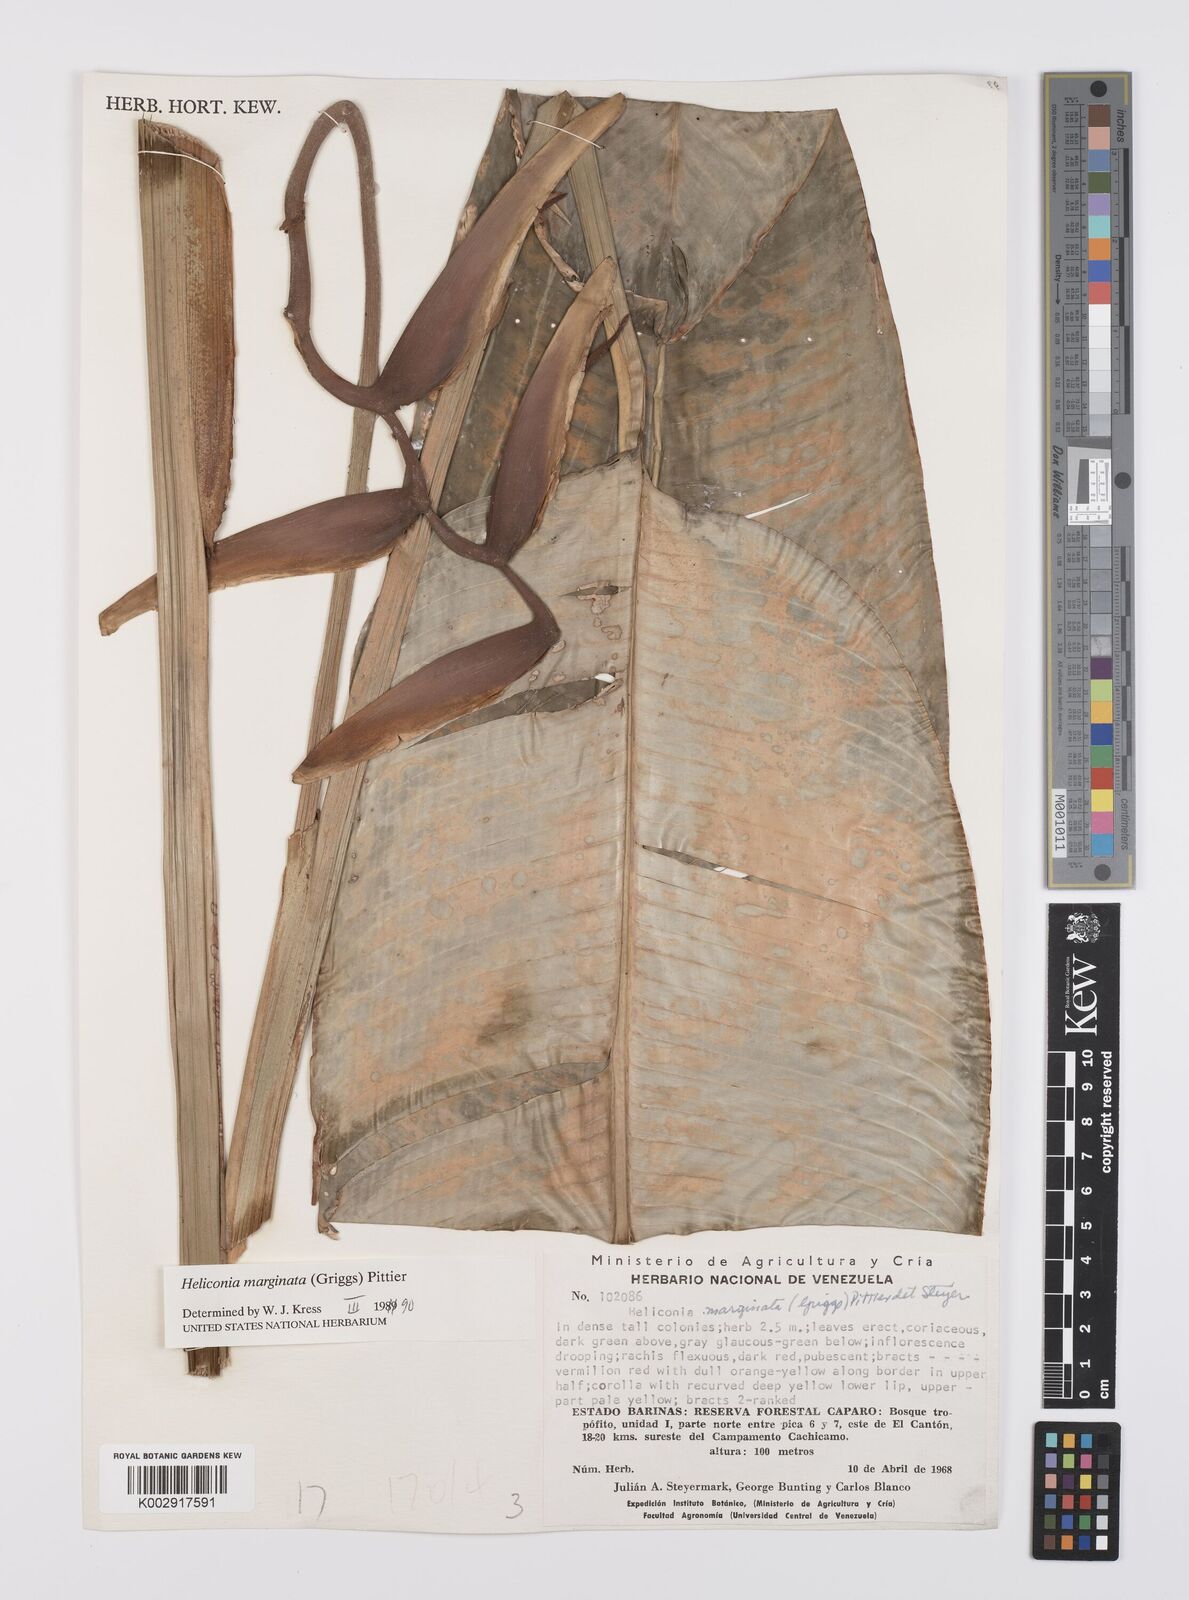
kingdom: Plantae
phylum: Tracheophyta
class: Liliopsida
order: Zingiberales
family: Heliconiaceae
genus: Heliconia
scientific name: Heliconia marginata
